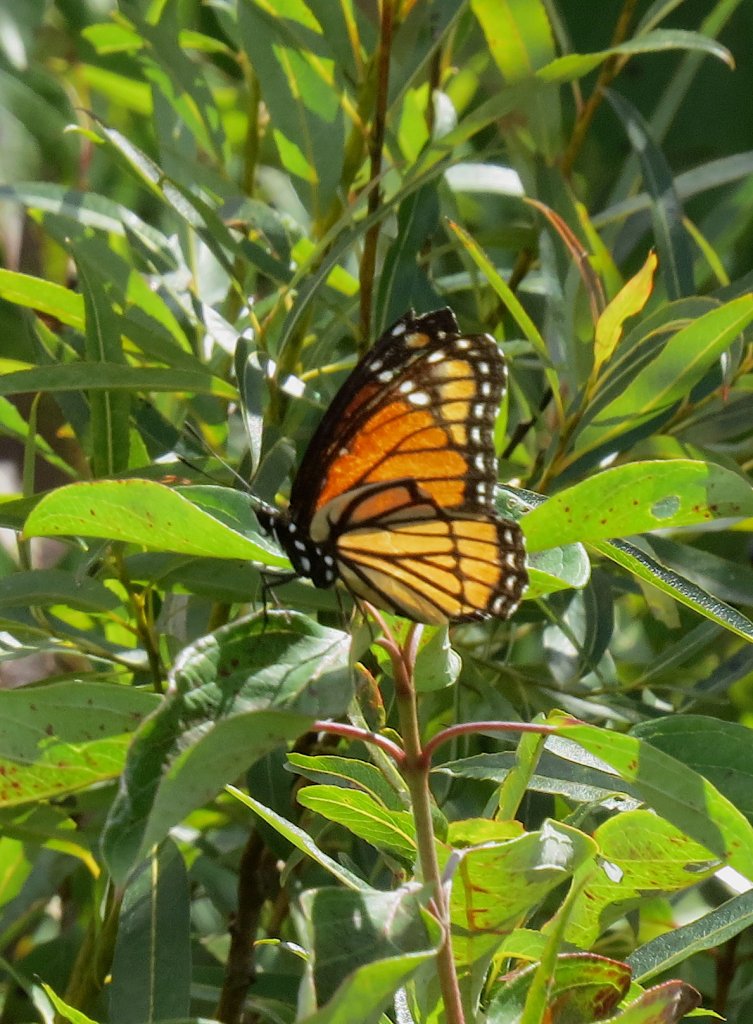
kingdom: Animalia
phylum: Arthropoda
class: Insecta
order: Lepidoptera
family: Nymphalidae
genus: Limenitis
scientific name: Limenitis archippus
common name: Viceroy
